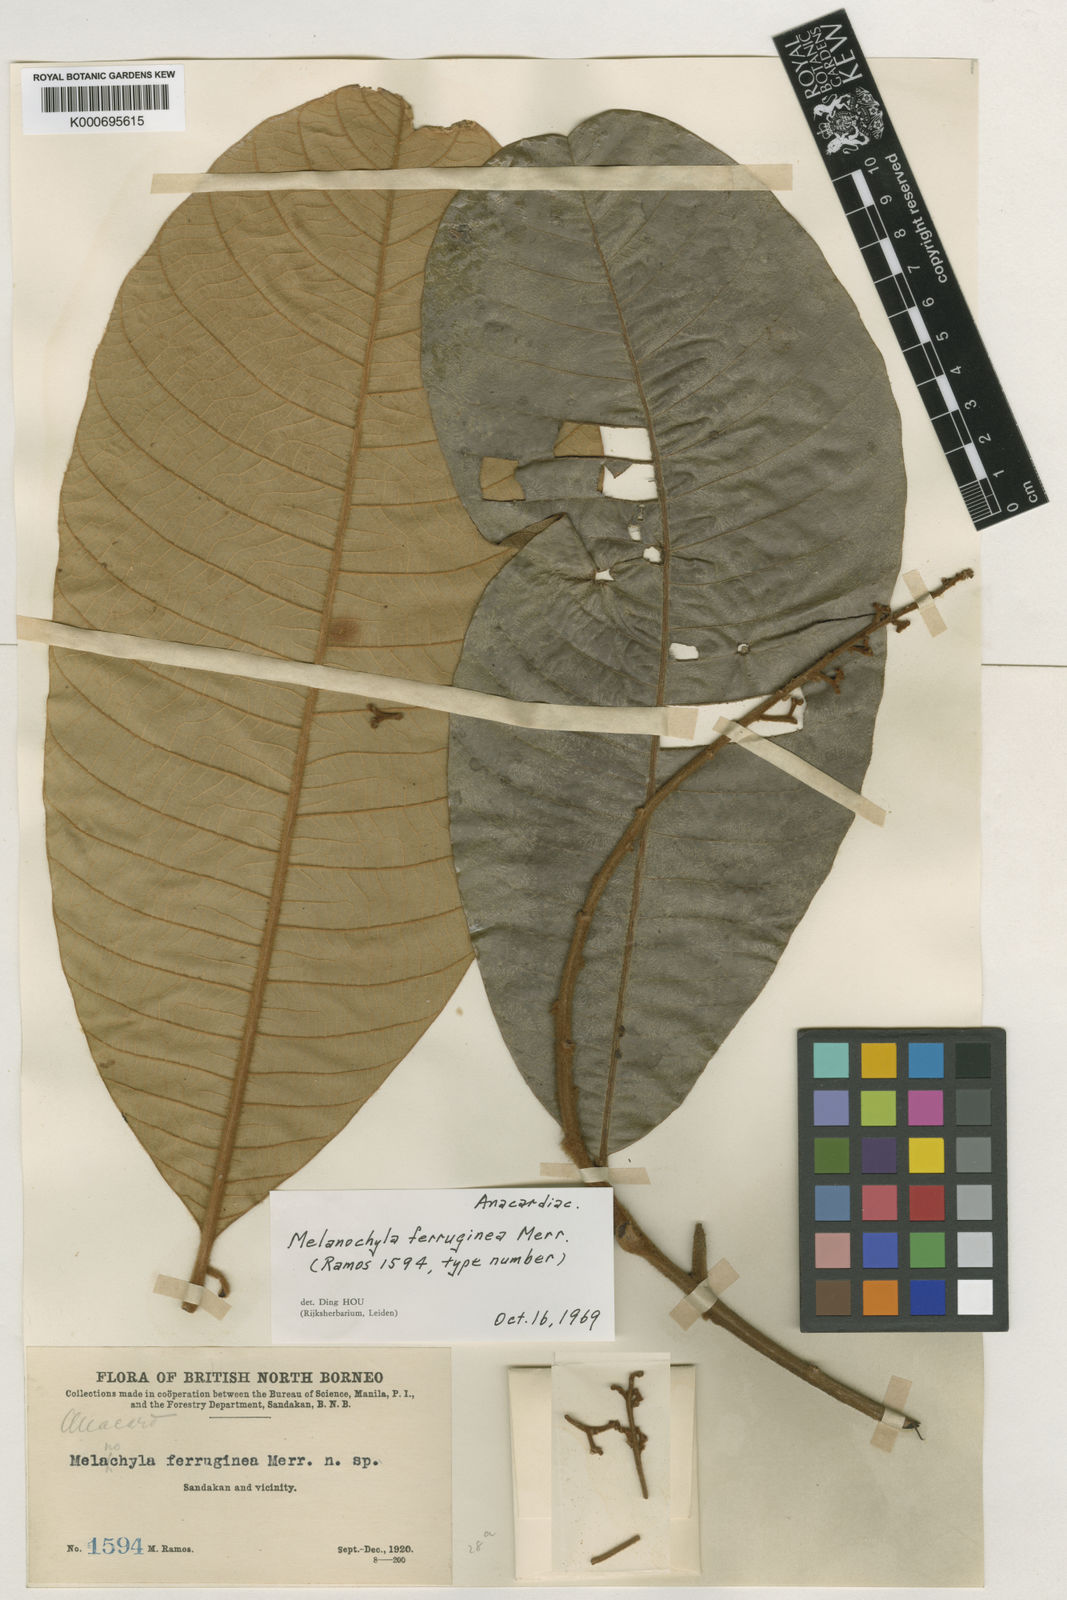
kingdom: Plantae
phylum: Tracheophyta
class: Magnoliopsida
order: Sapindales
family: Anacardiaceae
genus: Melanochyla
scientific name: Melanochyla beccariana
